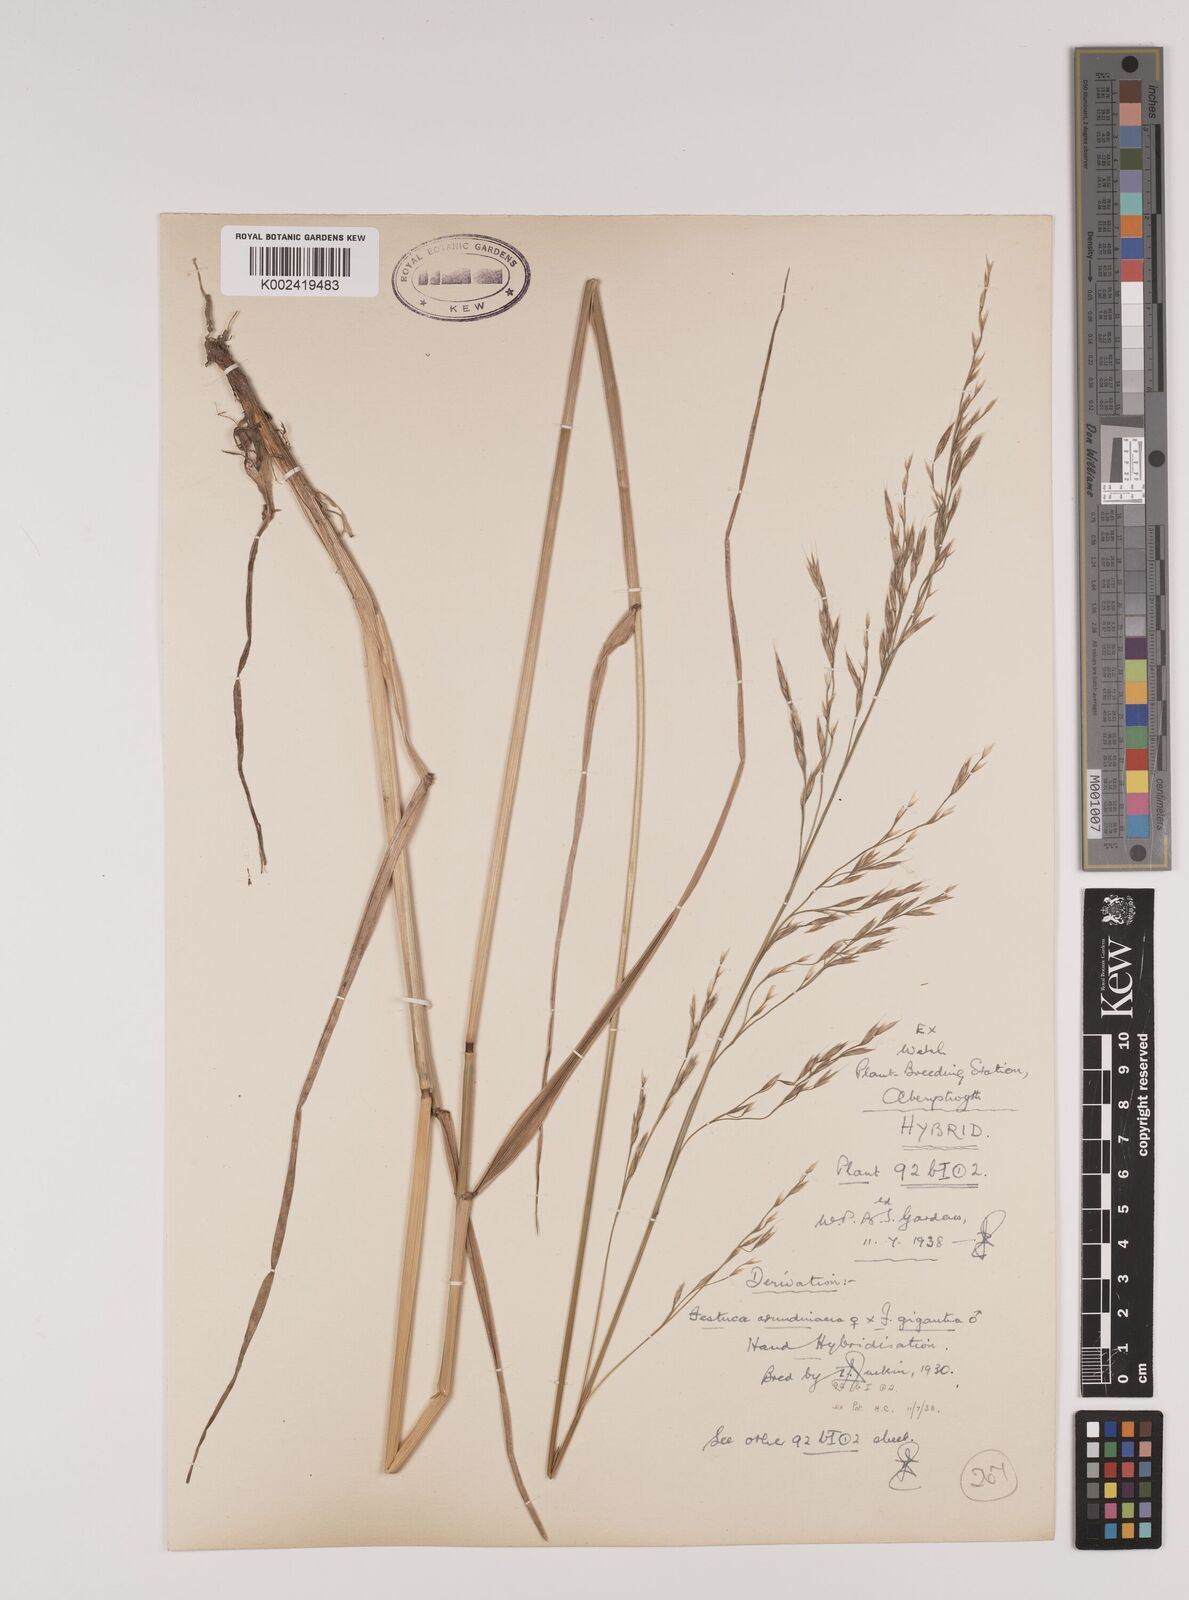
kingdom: Plantae
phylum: Tracheophyta
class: Liliopsida
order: Poales
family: Poaceae
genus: Lolium
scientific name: Lolium giganteum
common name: Giant fescue
